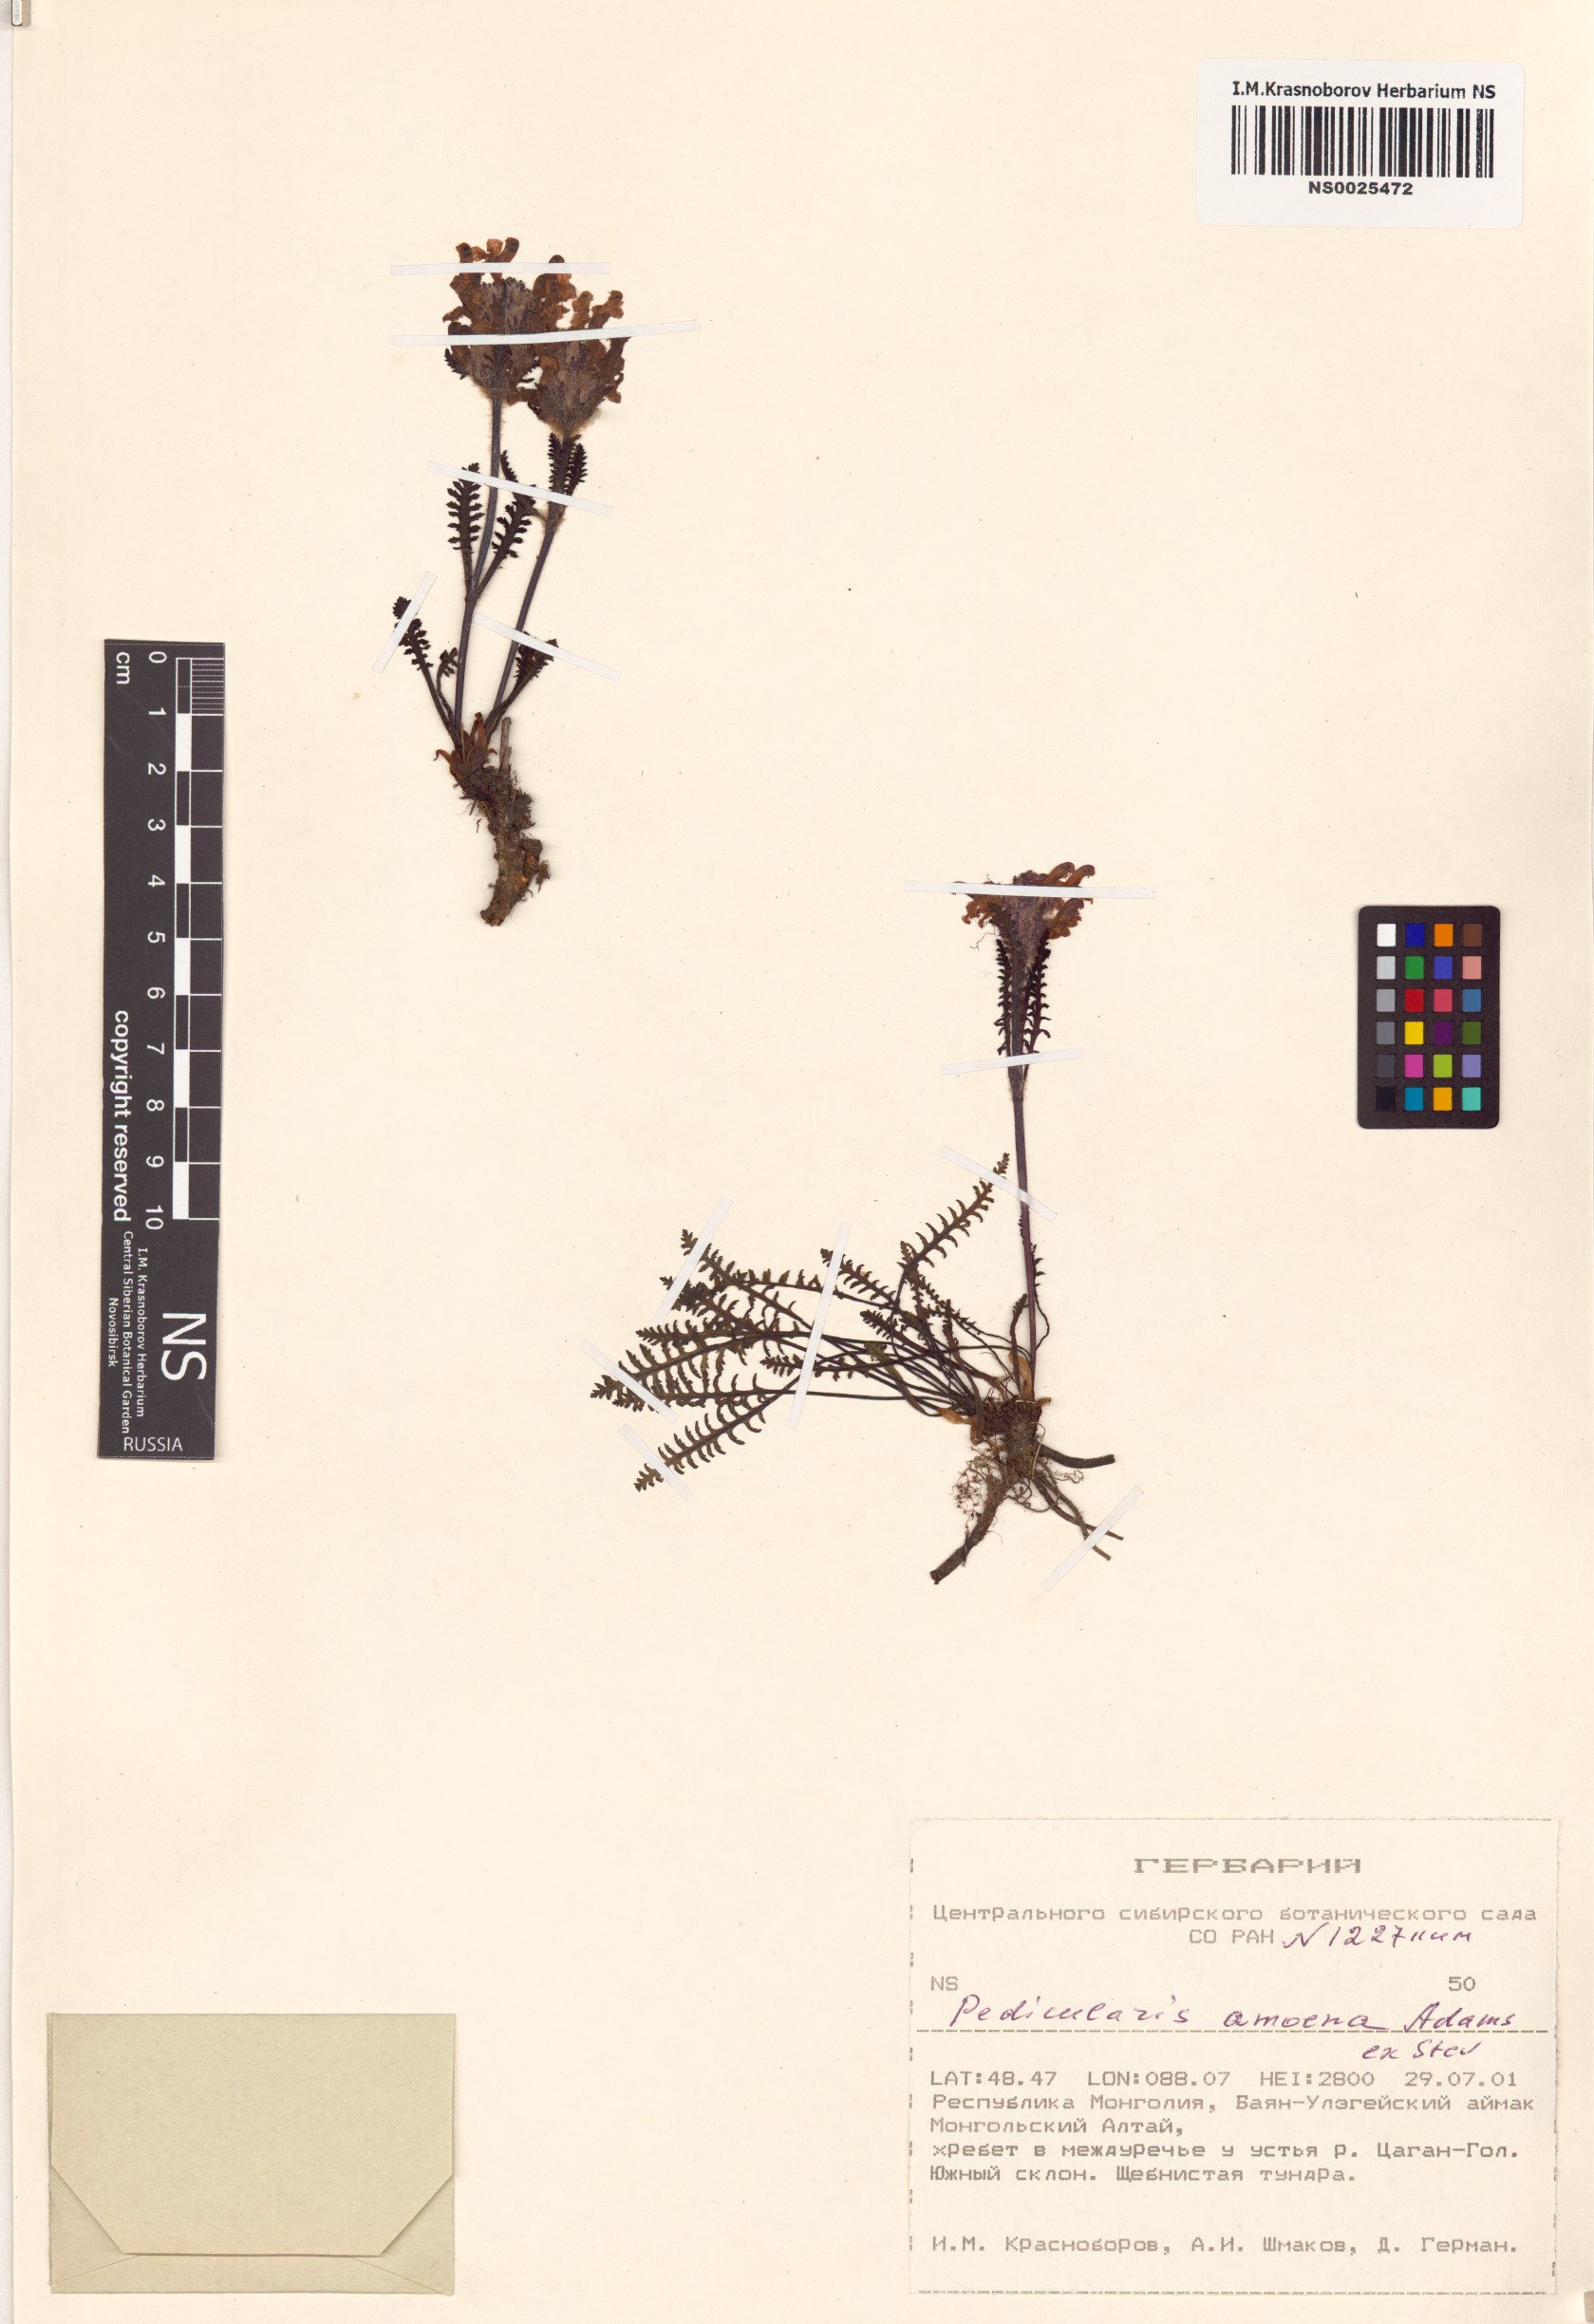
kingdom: Plantae
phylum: Tracheophyta
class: Magnoliopsida
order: Lamiales
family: Orobanchaceae
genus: Pedicularis
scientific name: Pedicularis amoena
